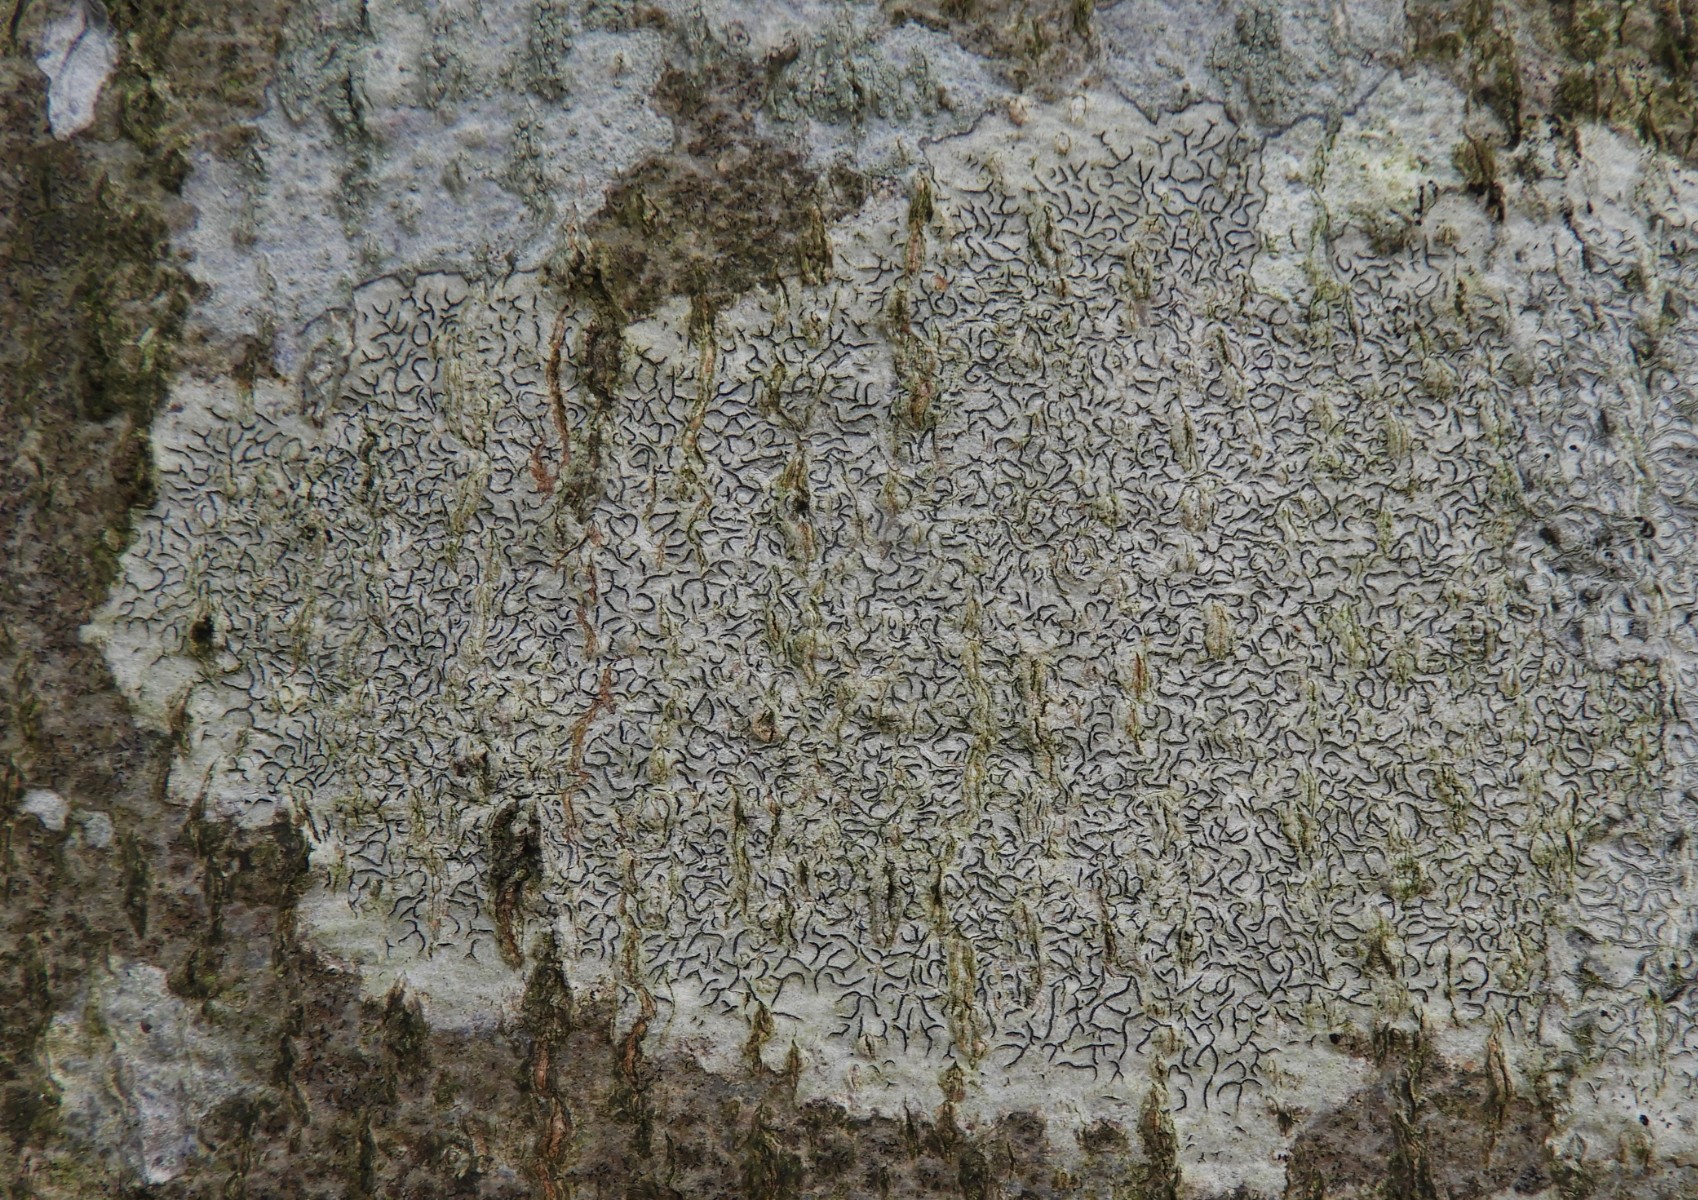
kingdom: Fungi
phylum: Ascomycota
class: Lecanoromycetes
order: Ostropales
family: Graphidaceae
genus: Graphis
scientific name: Graphis scripta
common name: almindelig skriftlav
